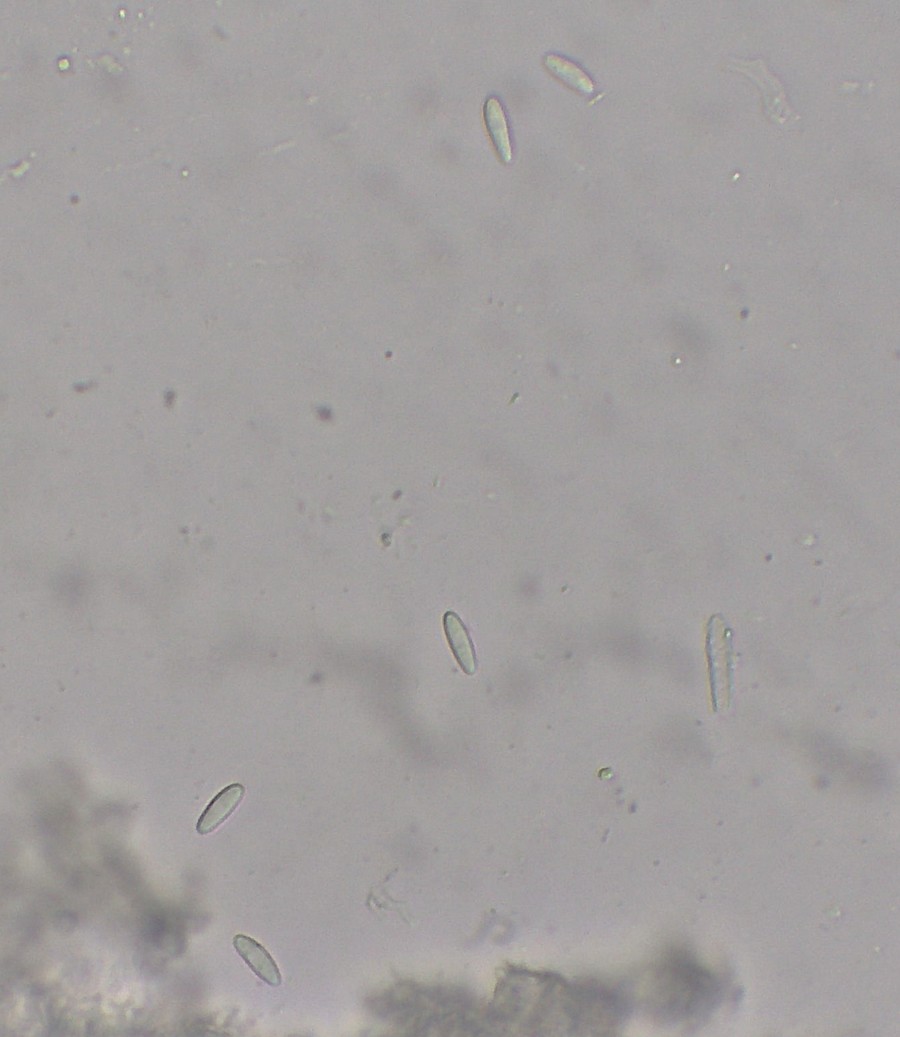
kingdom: Fungi
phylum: Ascomycota
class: Leotiomycetes
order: Helotiales
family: Lachnaceae
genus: Lachnum
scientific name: Lachnum
